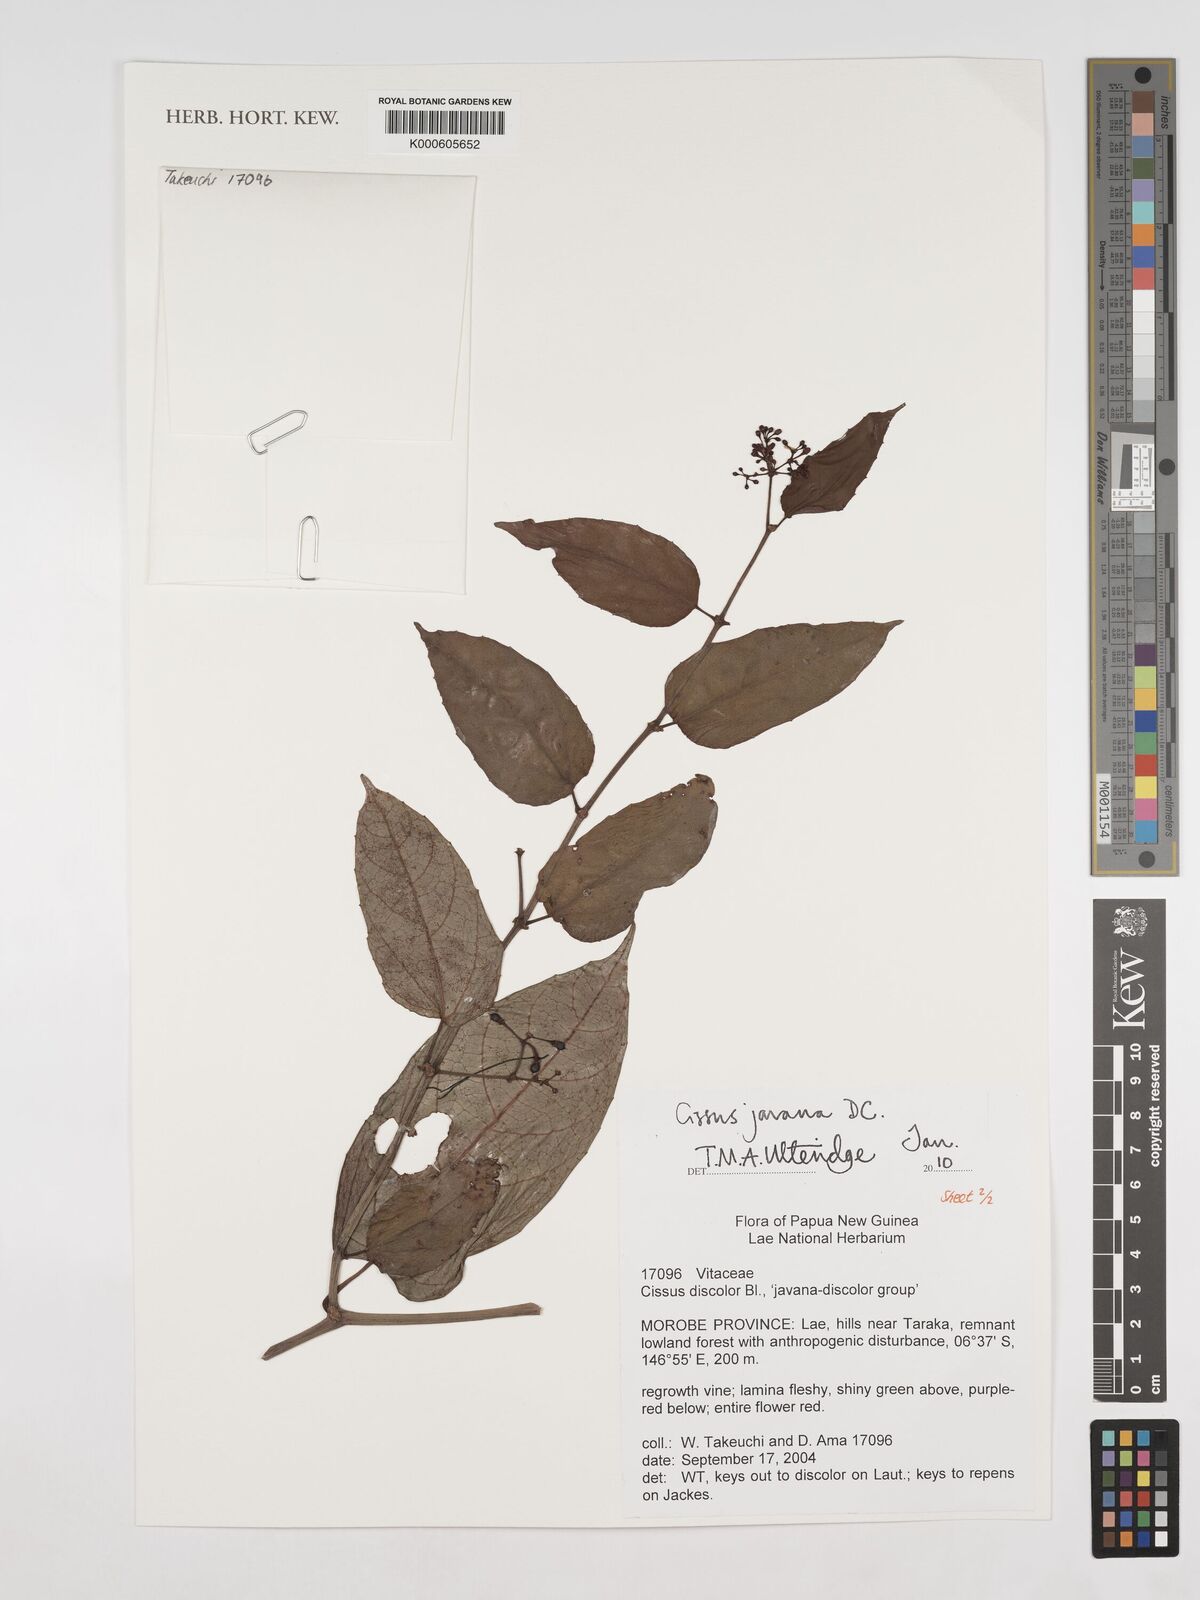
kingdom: Plantae
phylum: Tracheophyta
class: Magnoliopsida
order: Vitales
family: Vitaceae
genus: Cissus
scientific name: Cissus discolor
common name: Climbing-begonia
